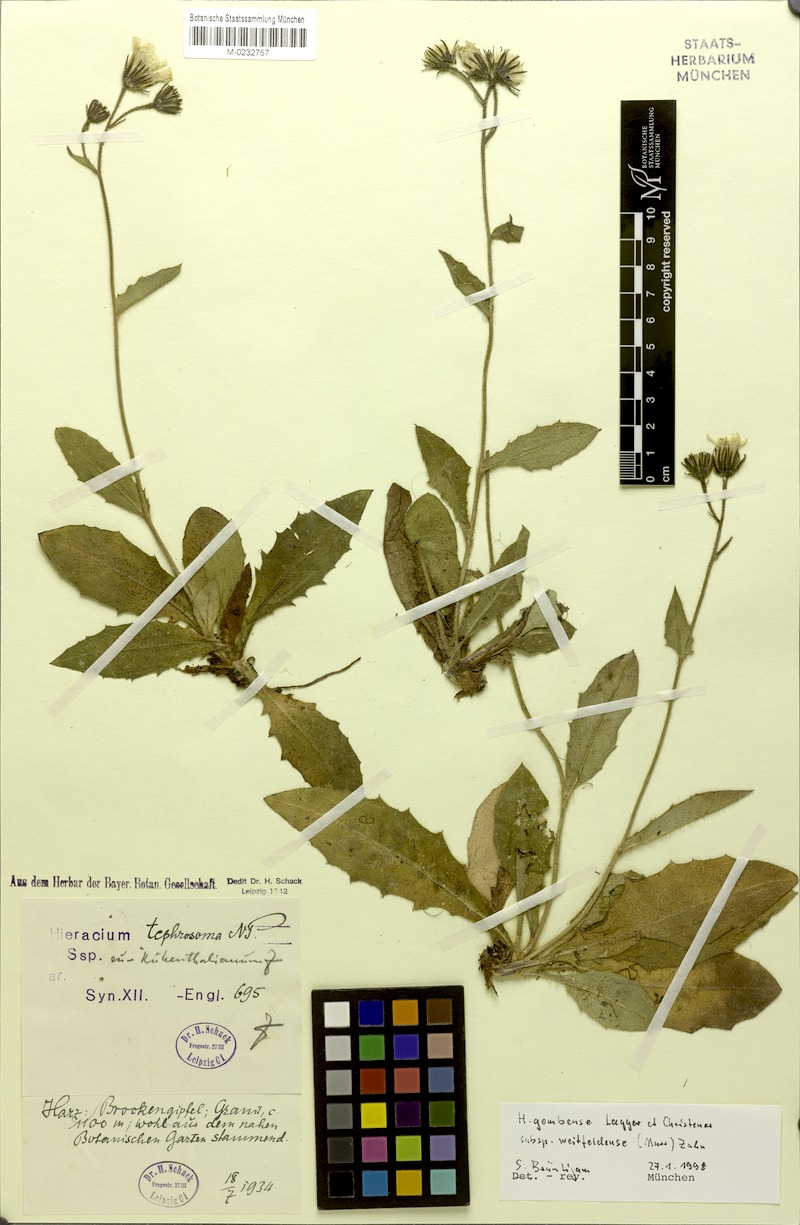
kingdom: Plantae
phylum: Tracheophyta
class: Magnoliopsida
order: Asterales
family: Asteraceae
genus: Hieracium
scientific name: Hieracium gombense
